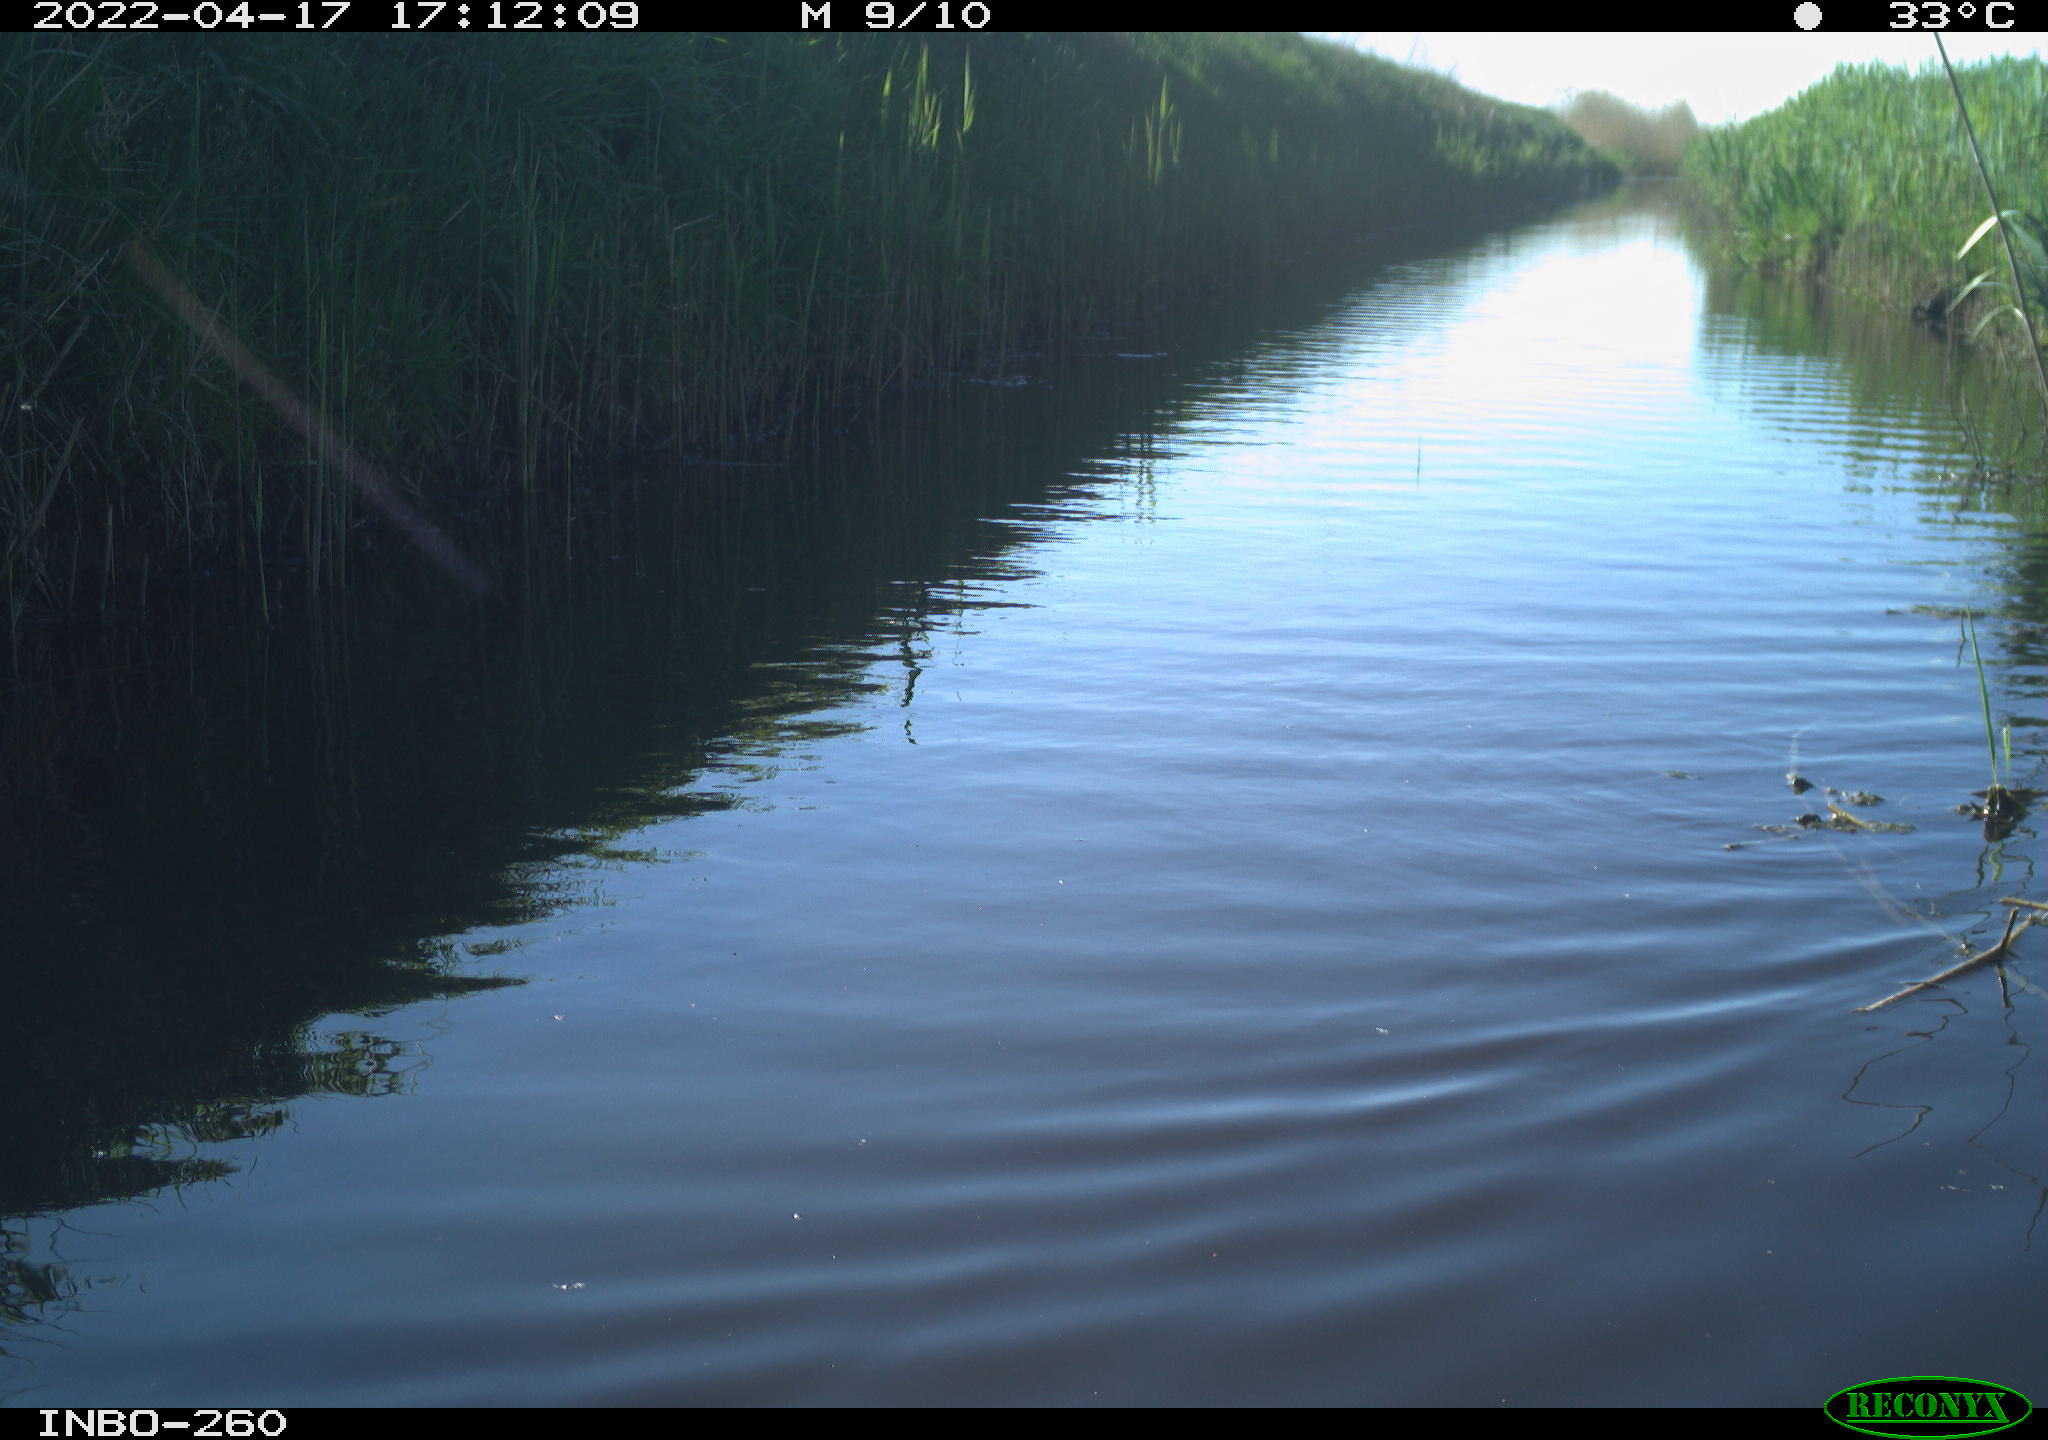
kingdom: Animalia
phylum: Chordata
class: Aves
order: Gruiformes
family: Rallidae
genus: Fulica
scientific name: Fulica atra
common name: Eurasian coot
